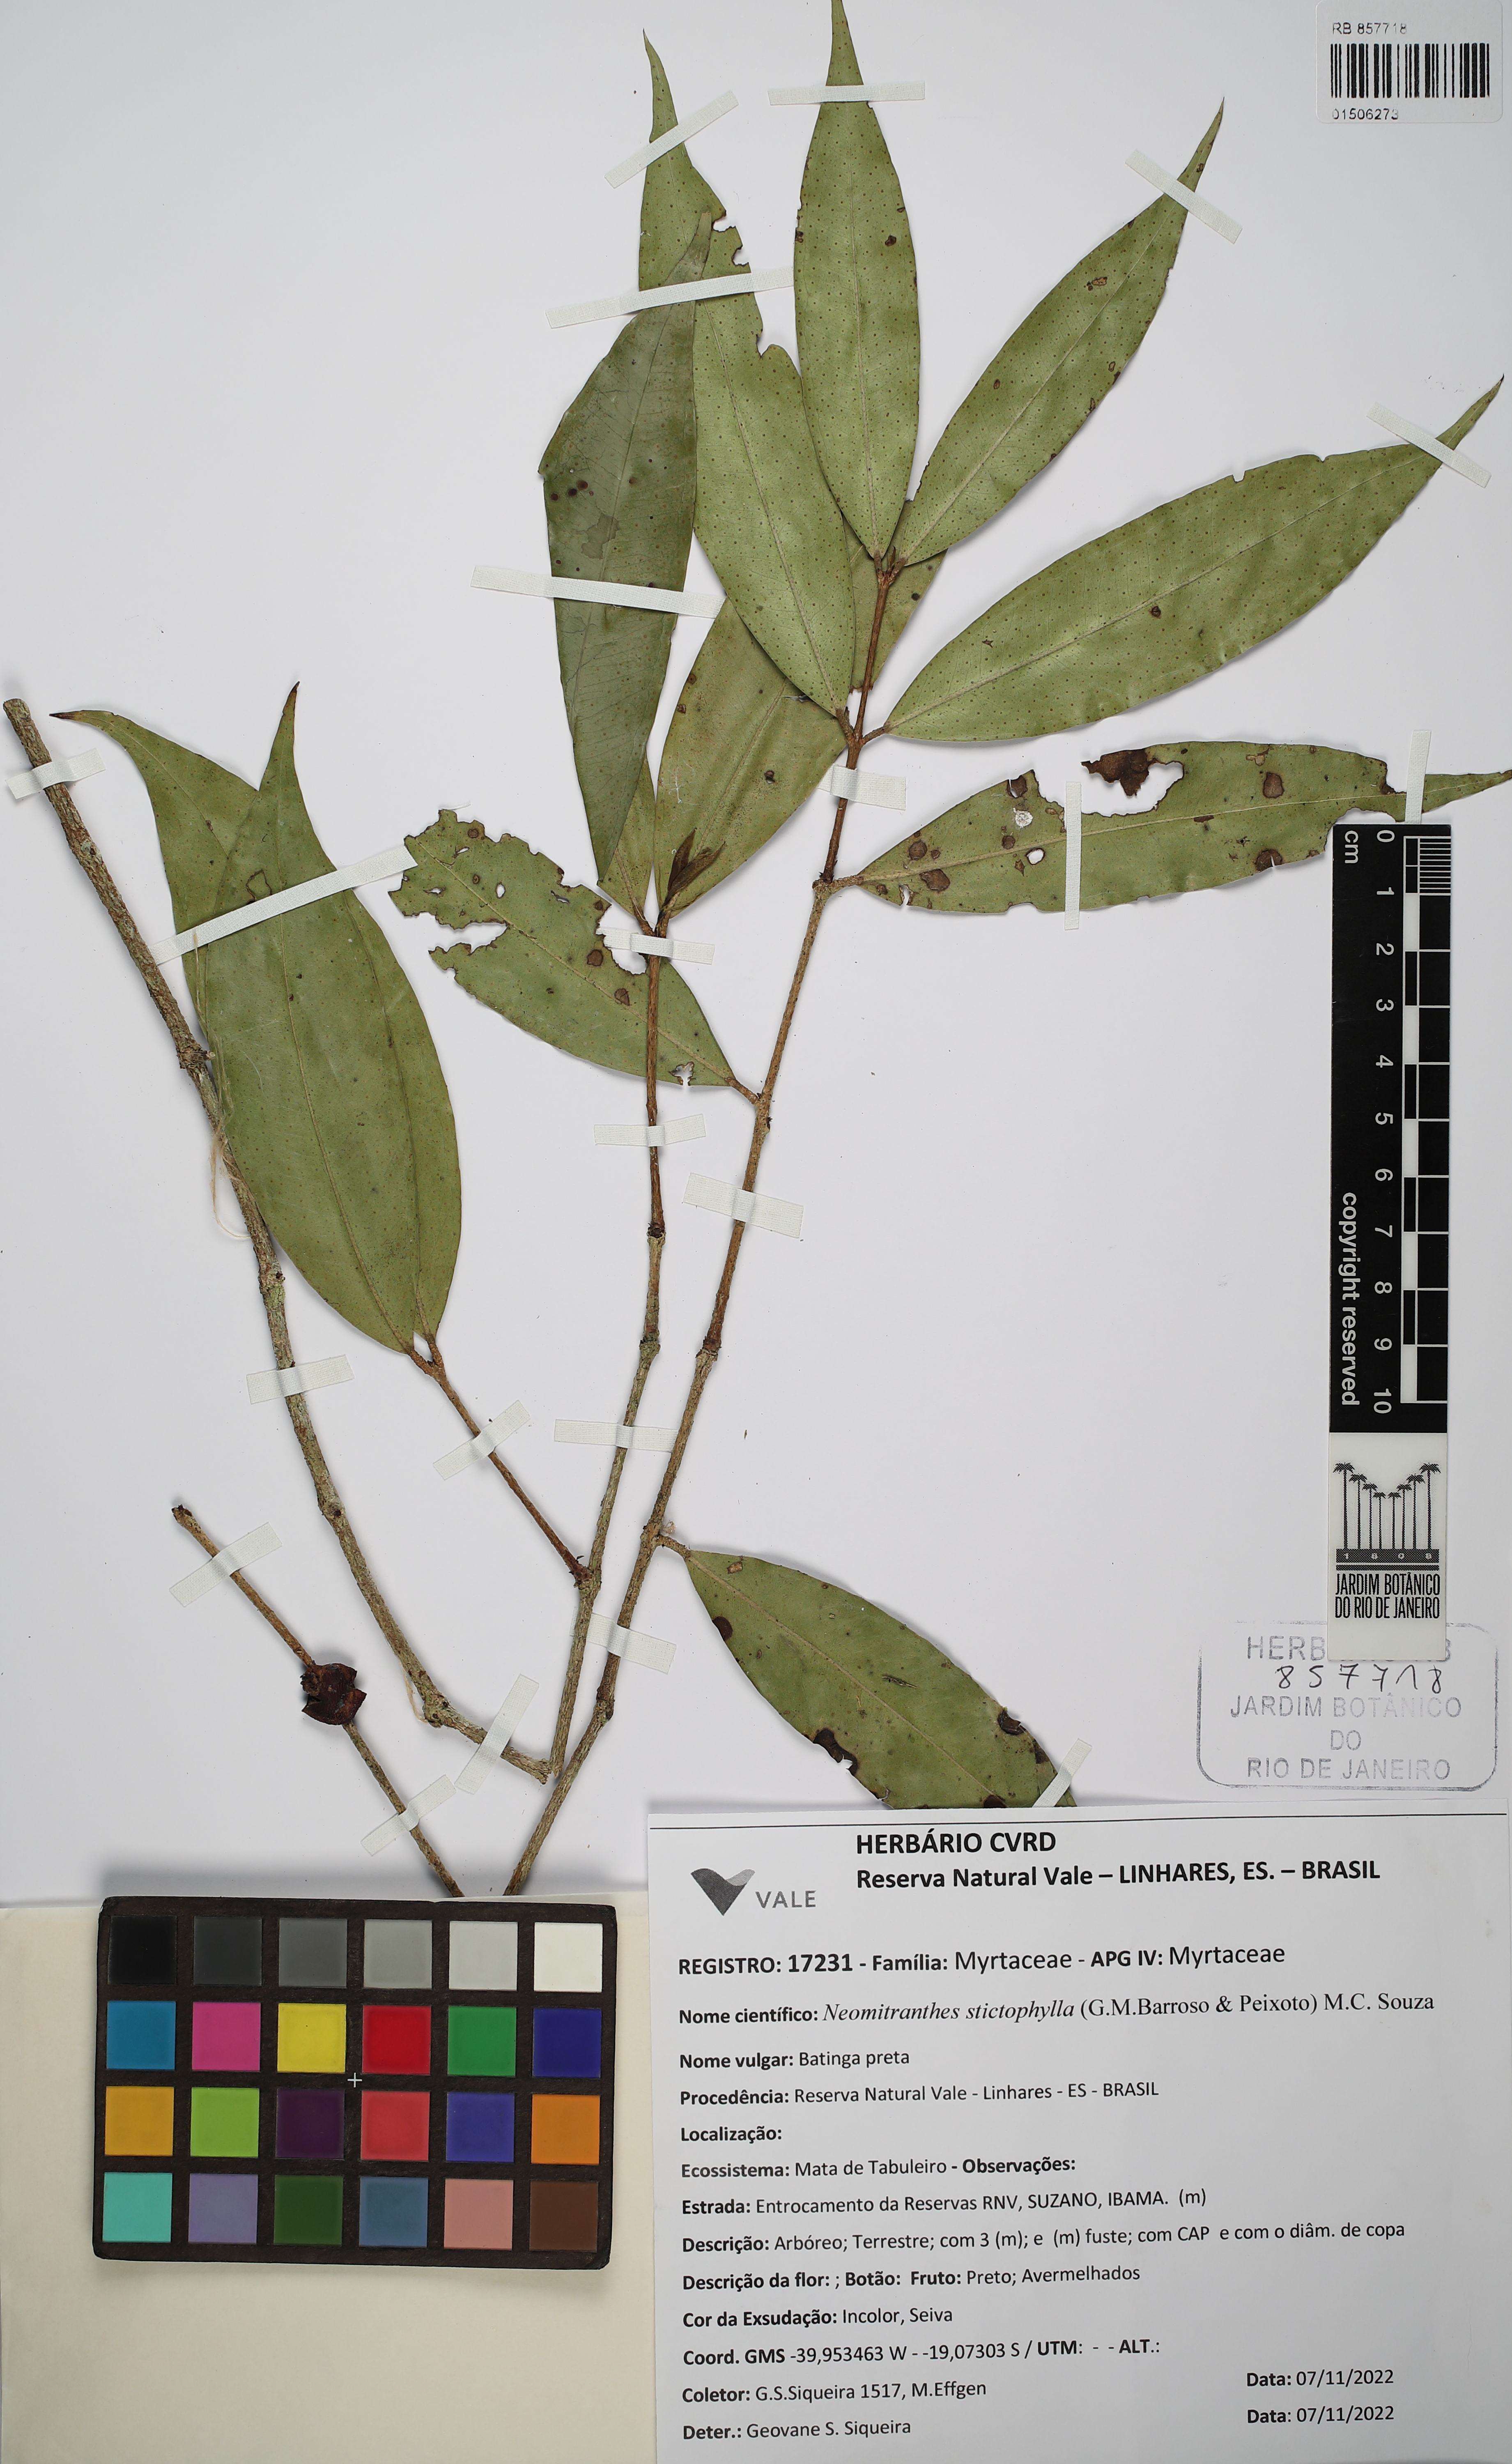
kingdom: Plantae
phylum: Tracheophyta
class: Magnoliopsida
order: Myrtales
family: Myrtaceae
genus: Neomitranthes
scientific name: Neomitranthes stictophylla
